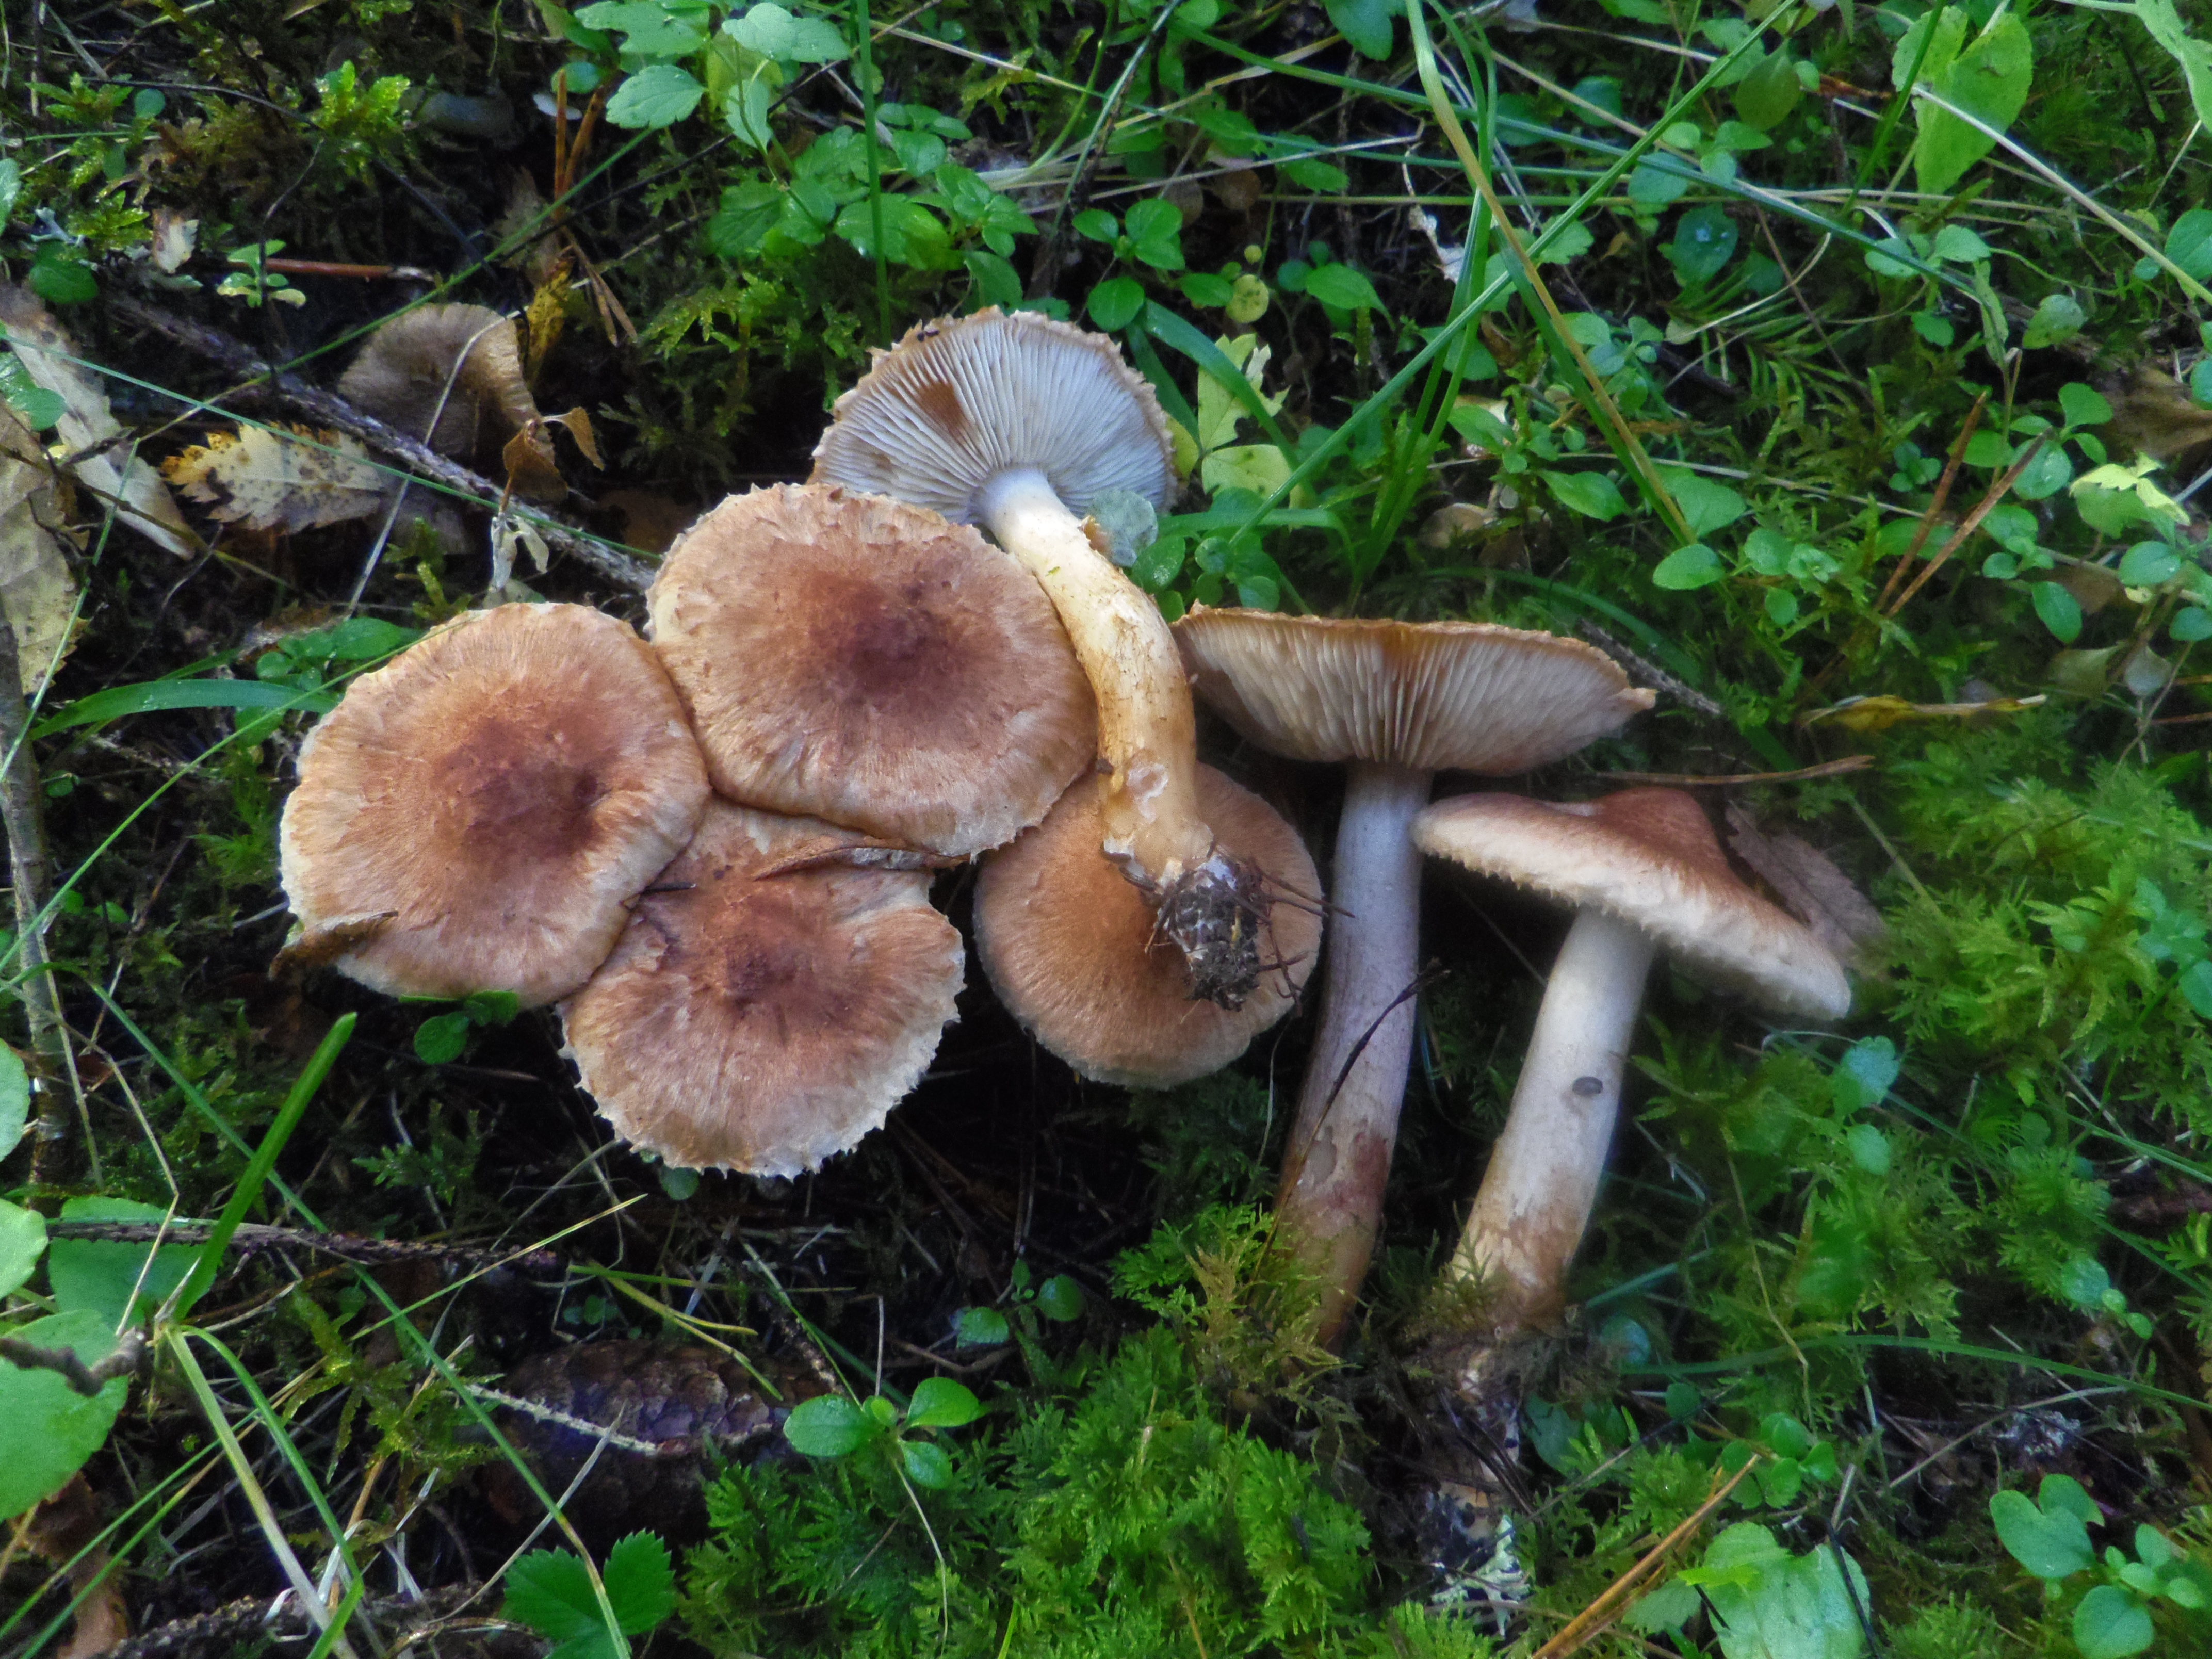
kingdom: Fungi
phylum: Basidiomycota
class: Agaricomycetes
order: Agaricales
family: Tricholomataceae
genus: Tricholoma
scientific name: Tricholoma vaccinum
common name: Scaly knight
